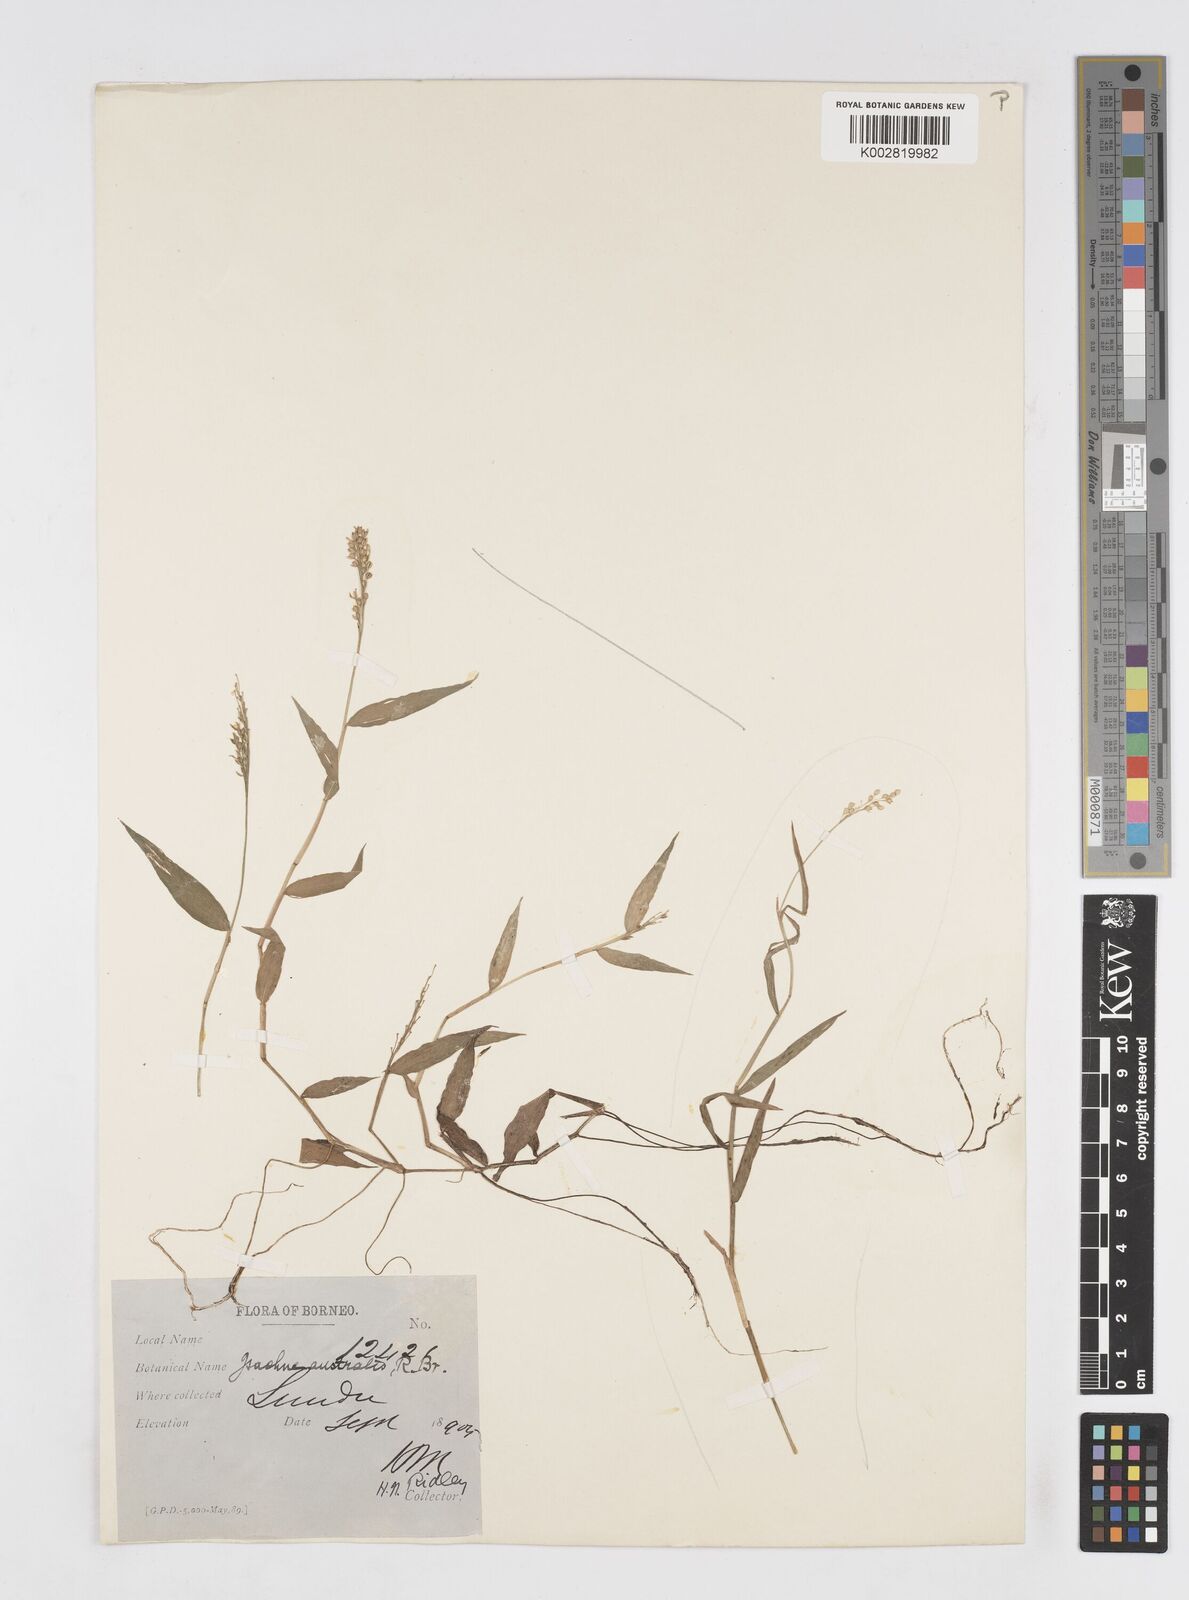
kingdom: Plantae
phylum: Tracheophyta
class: Liliopsida
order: Poales
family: Poaceae
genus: Isachne
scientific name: Isachne globosa
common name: Swamp millet
